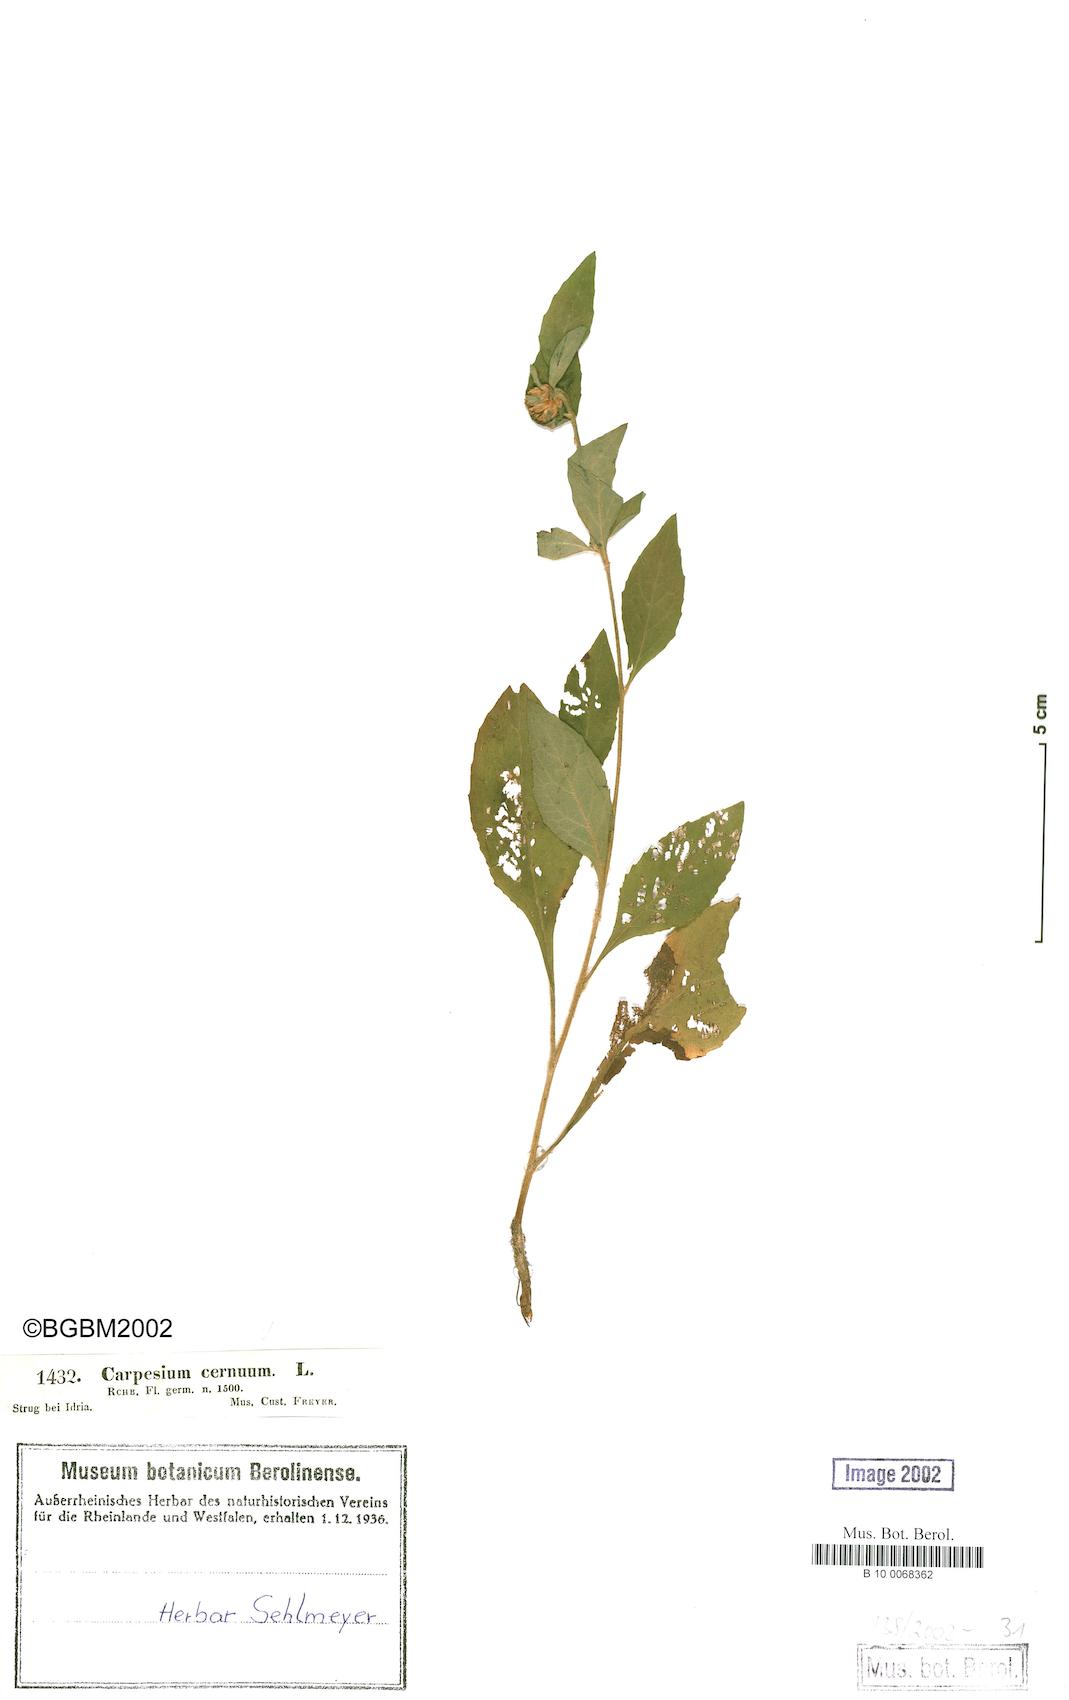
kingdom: Plantae
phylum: Tracheophyta
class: Magnoliopsida
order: Asterales
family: Asteraceae
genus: Carpesium
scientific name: Carpesium cernuum
